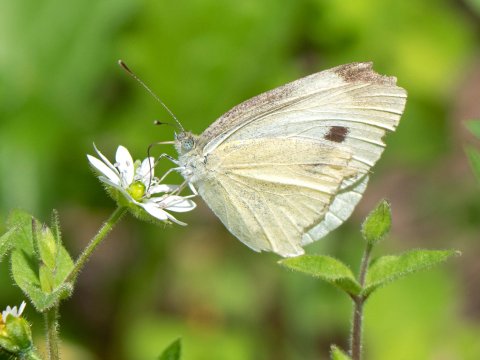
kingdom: Animalia
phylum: Arthropoda
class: Insecta
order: Lepidoptera
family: Pieridae
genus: Pieris
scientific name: Pieris rapae
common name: Cabbage White
